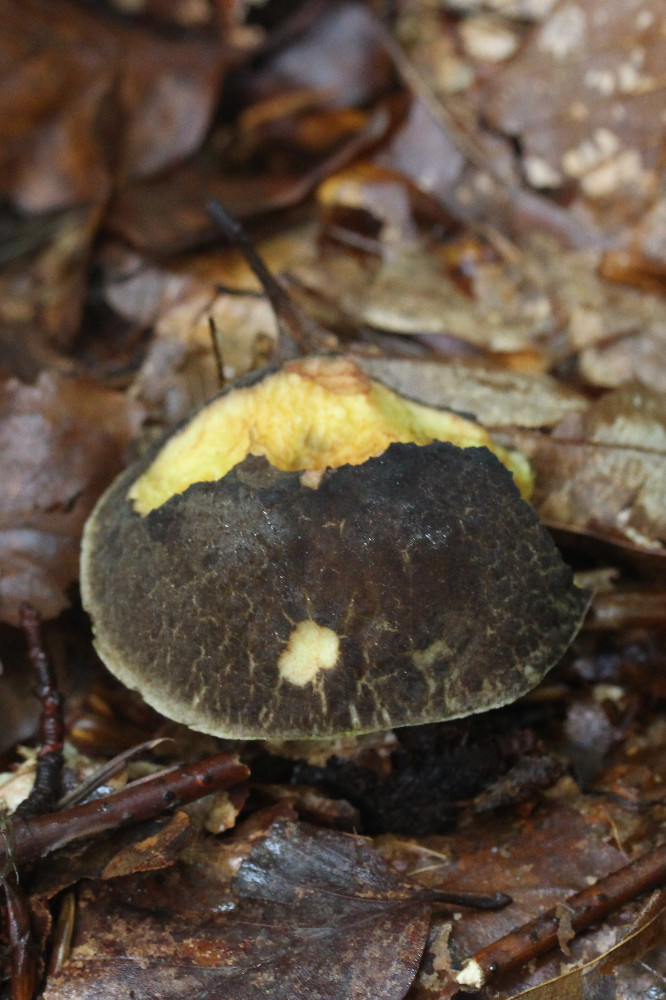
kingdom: Fungi
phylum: Basidiomycota
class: Agaricomycetes
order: Boletales
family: Boletaceae
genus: Xerocomellus
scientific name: Xerocomellus chrysenteron
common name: rødsprukken rørhat
